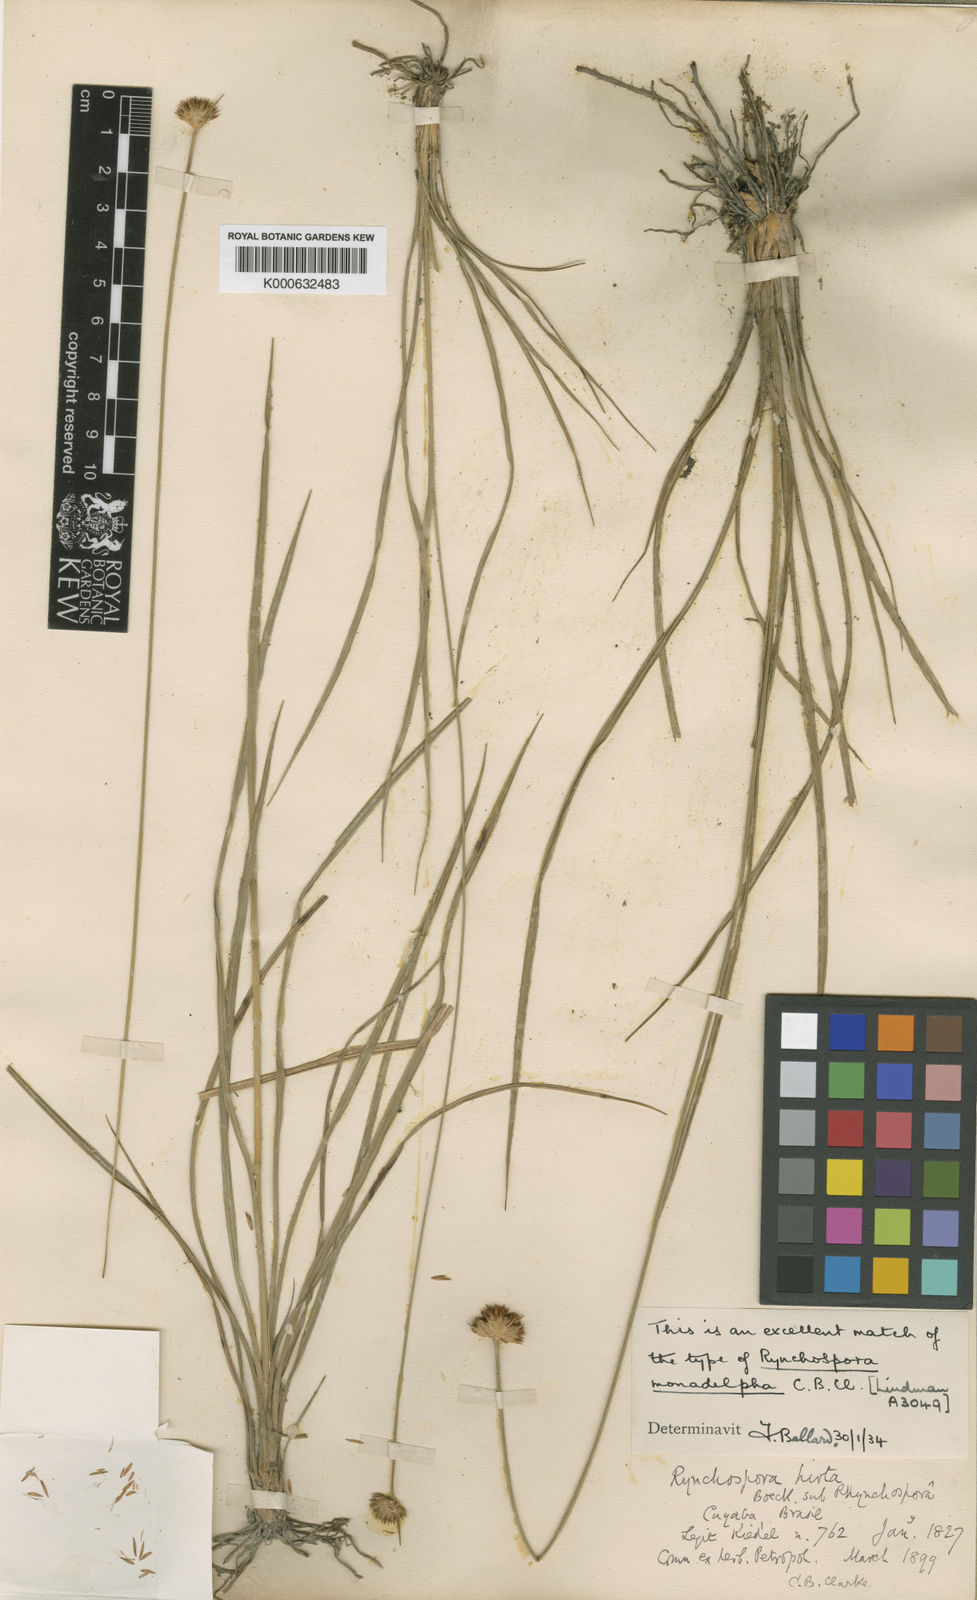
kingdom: Plantae
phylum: Tracheophyta
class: Liliopsida
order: Poales
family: Cyperaceae
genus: Rhynchospora
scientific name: Rhynchospora hirta
